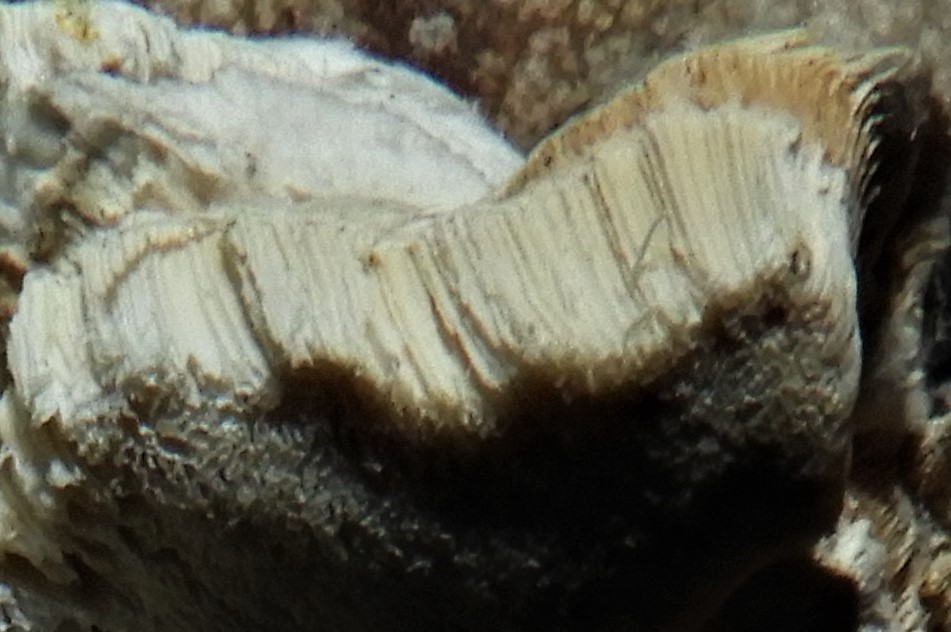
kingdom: Fungi
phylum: Basidiomycota
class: Agaricomycetes
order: Hymenochaetales
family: Oxyporaceae
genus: Oxyporus
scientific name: Oxyporus populinus
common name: sammenvokset trylleporesvamp
